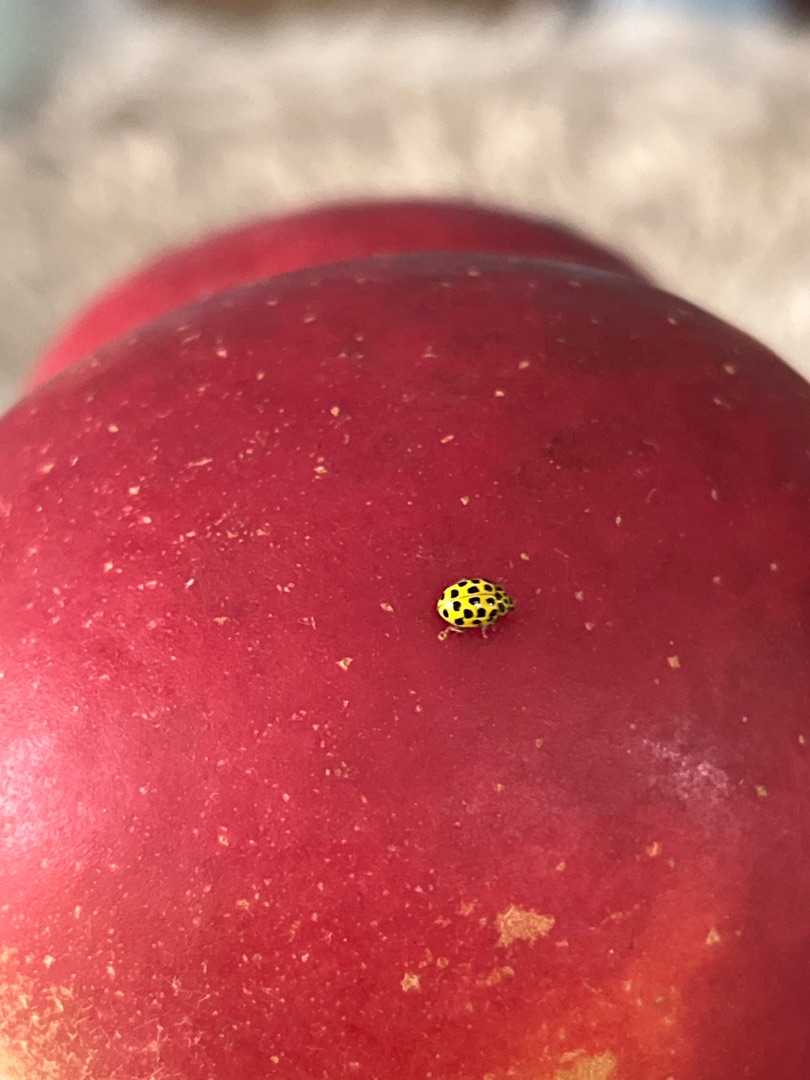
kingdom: Animalia
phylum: Arthropoda
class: Insecta
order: Coleoptera
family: Coccinellidae
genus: Psyllobora
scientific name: Psyllobora vigintiduopunctata
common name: Toogtyveplettet mariehøne
